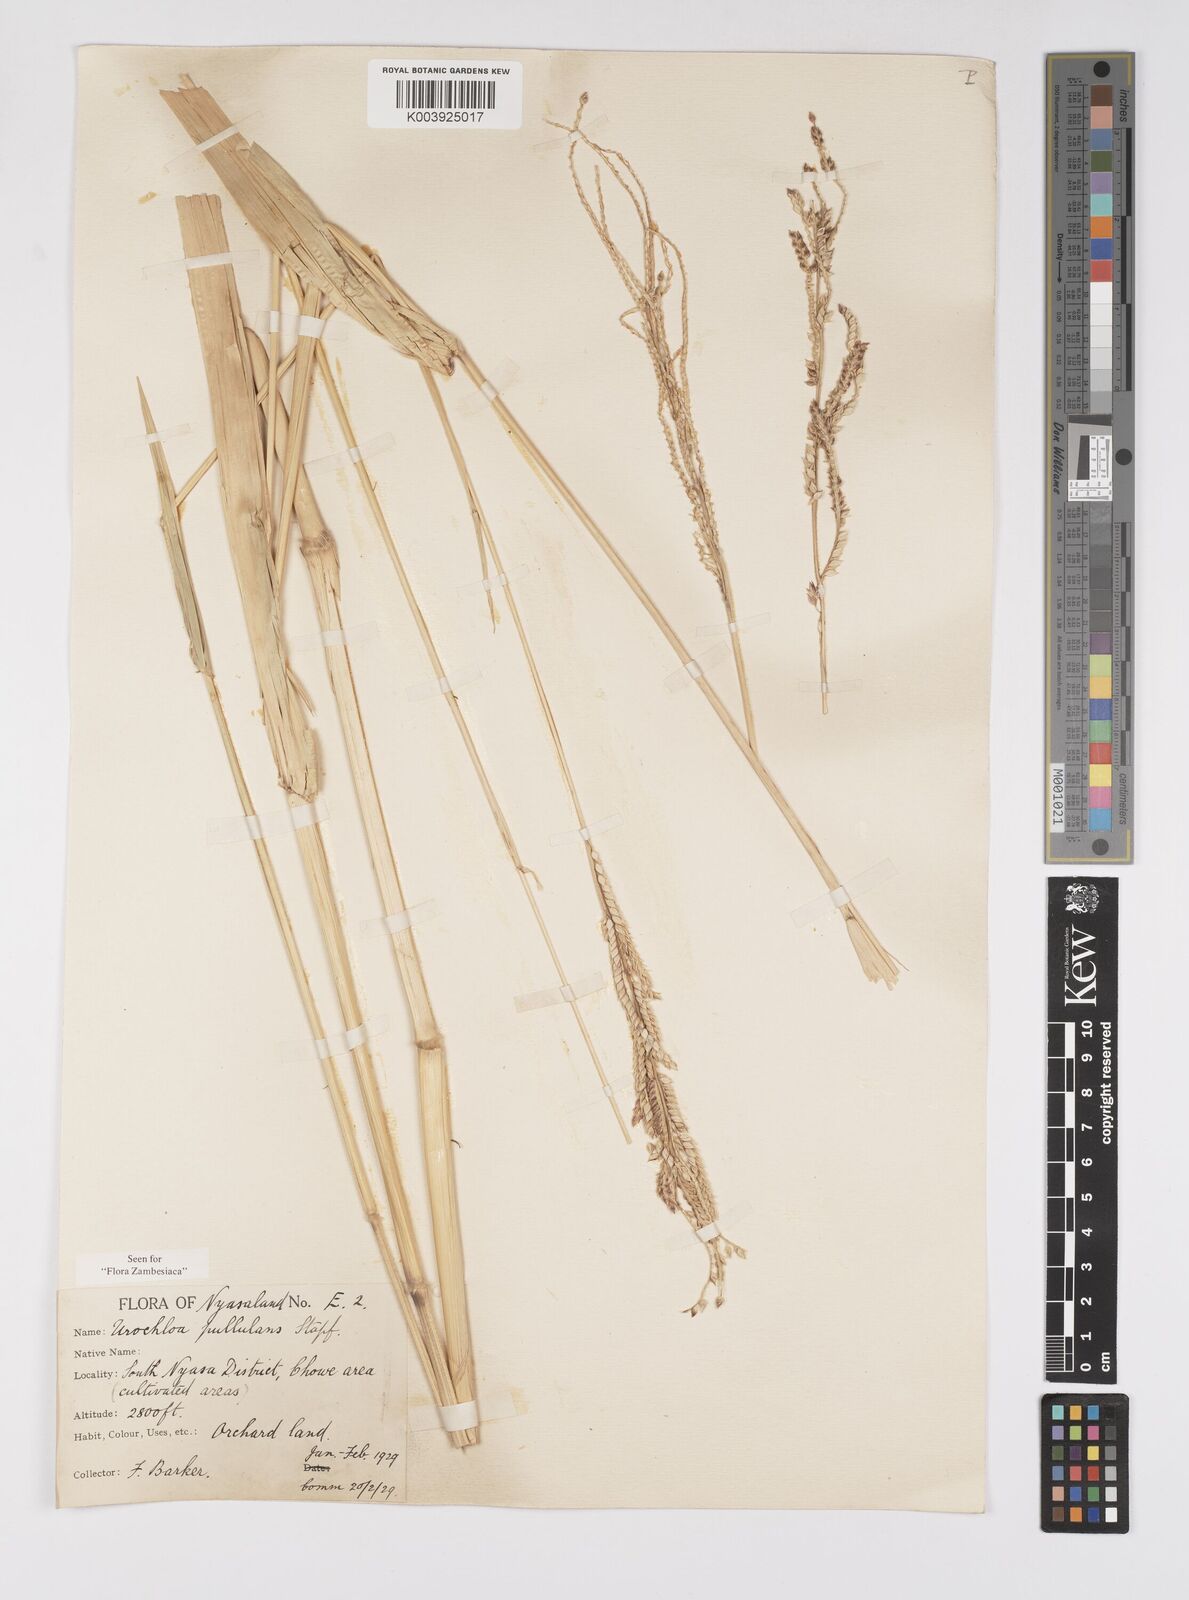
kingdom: Plantae
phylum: Tracheophyta
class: Liliopsida
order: Poales
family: Poaceae
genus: Urochloa
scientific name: Urochloa trichopus
